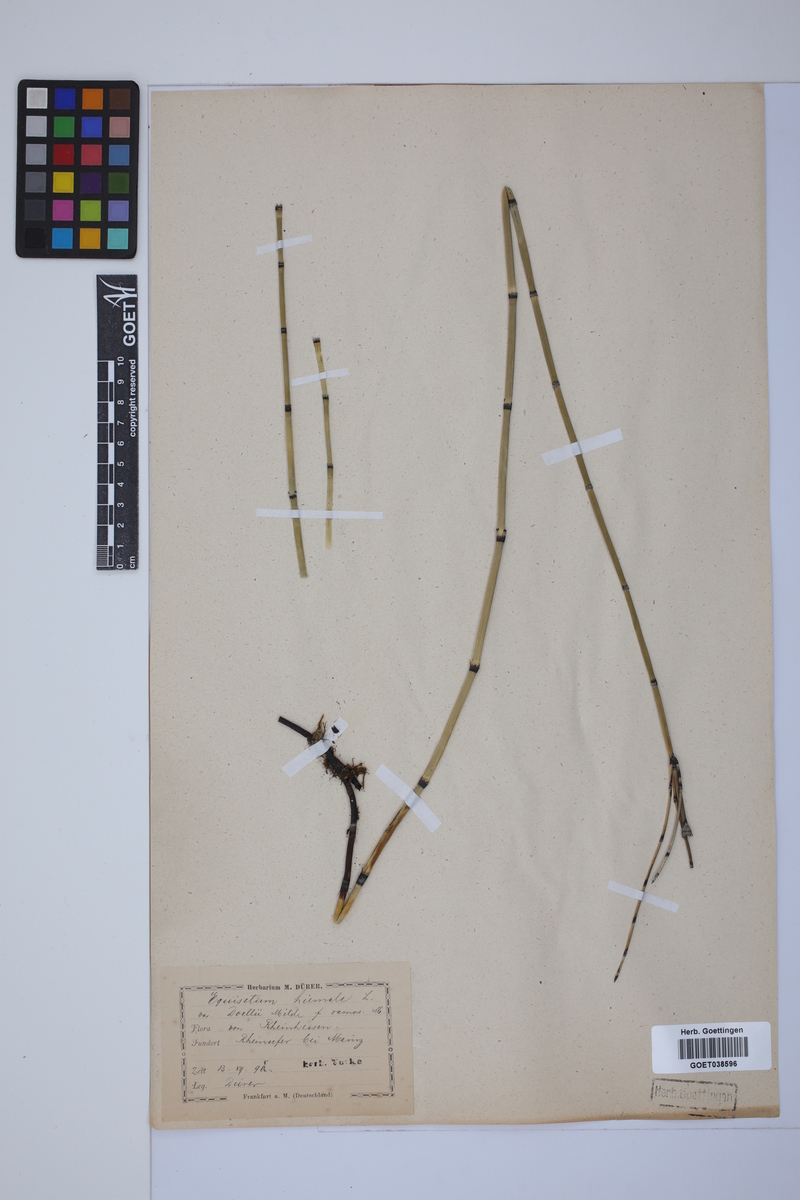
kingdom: Plantae
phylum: Tracheophyta
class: Polypodiopsida
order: Equisetales
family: Equisetaceae
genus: Equisetum
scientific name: Equisetum hyemale
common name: Rough horsetail
